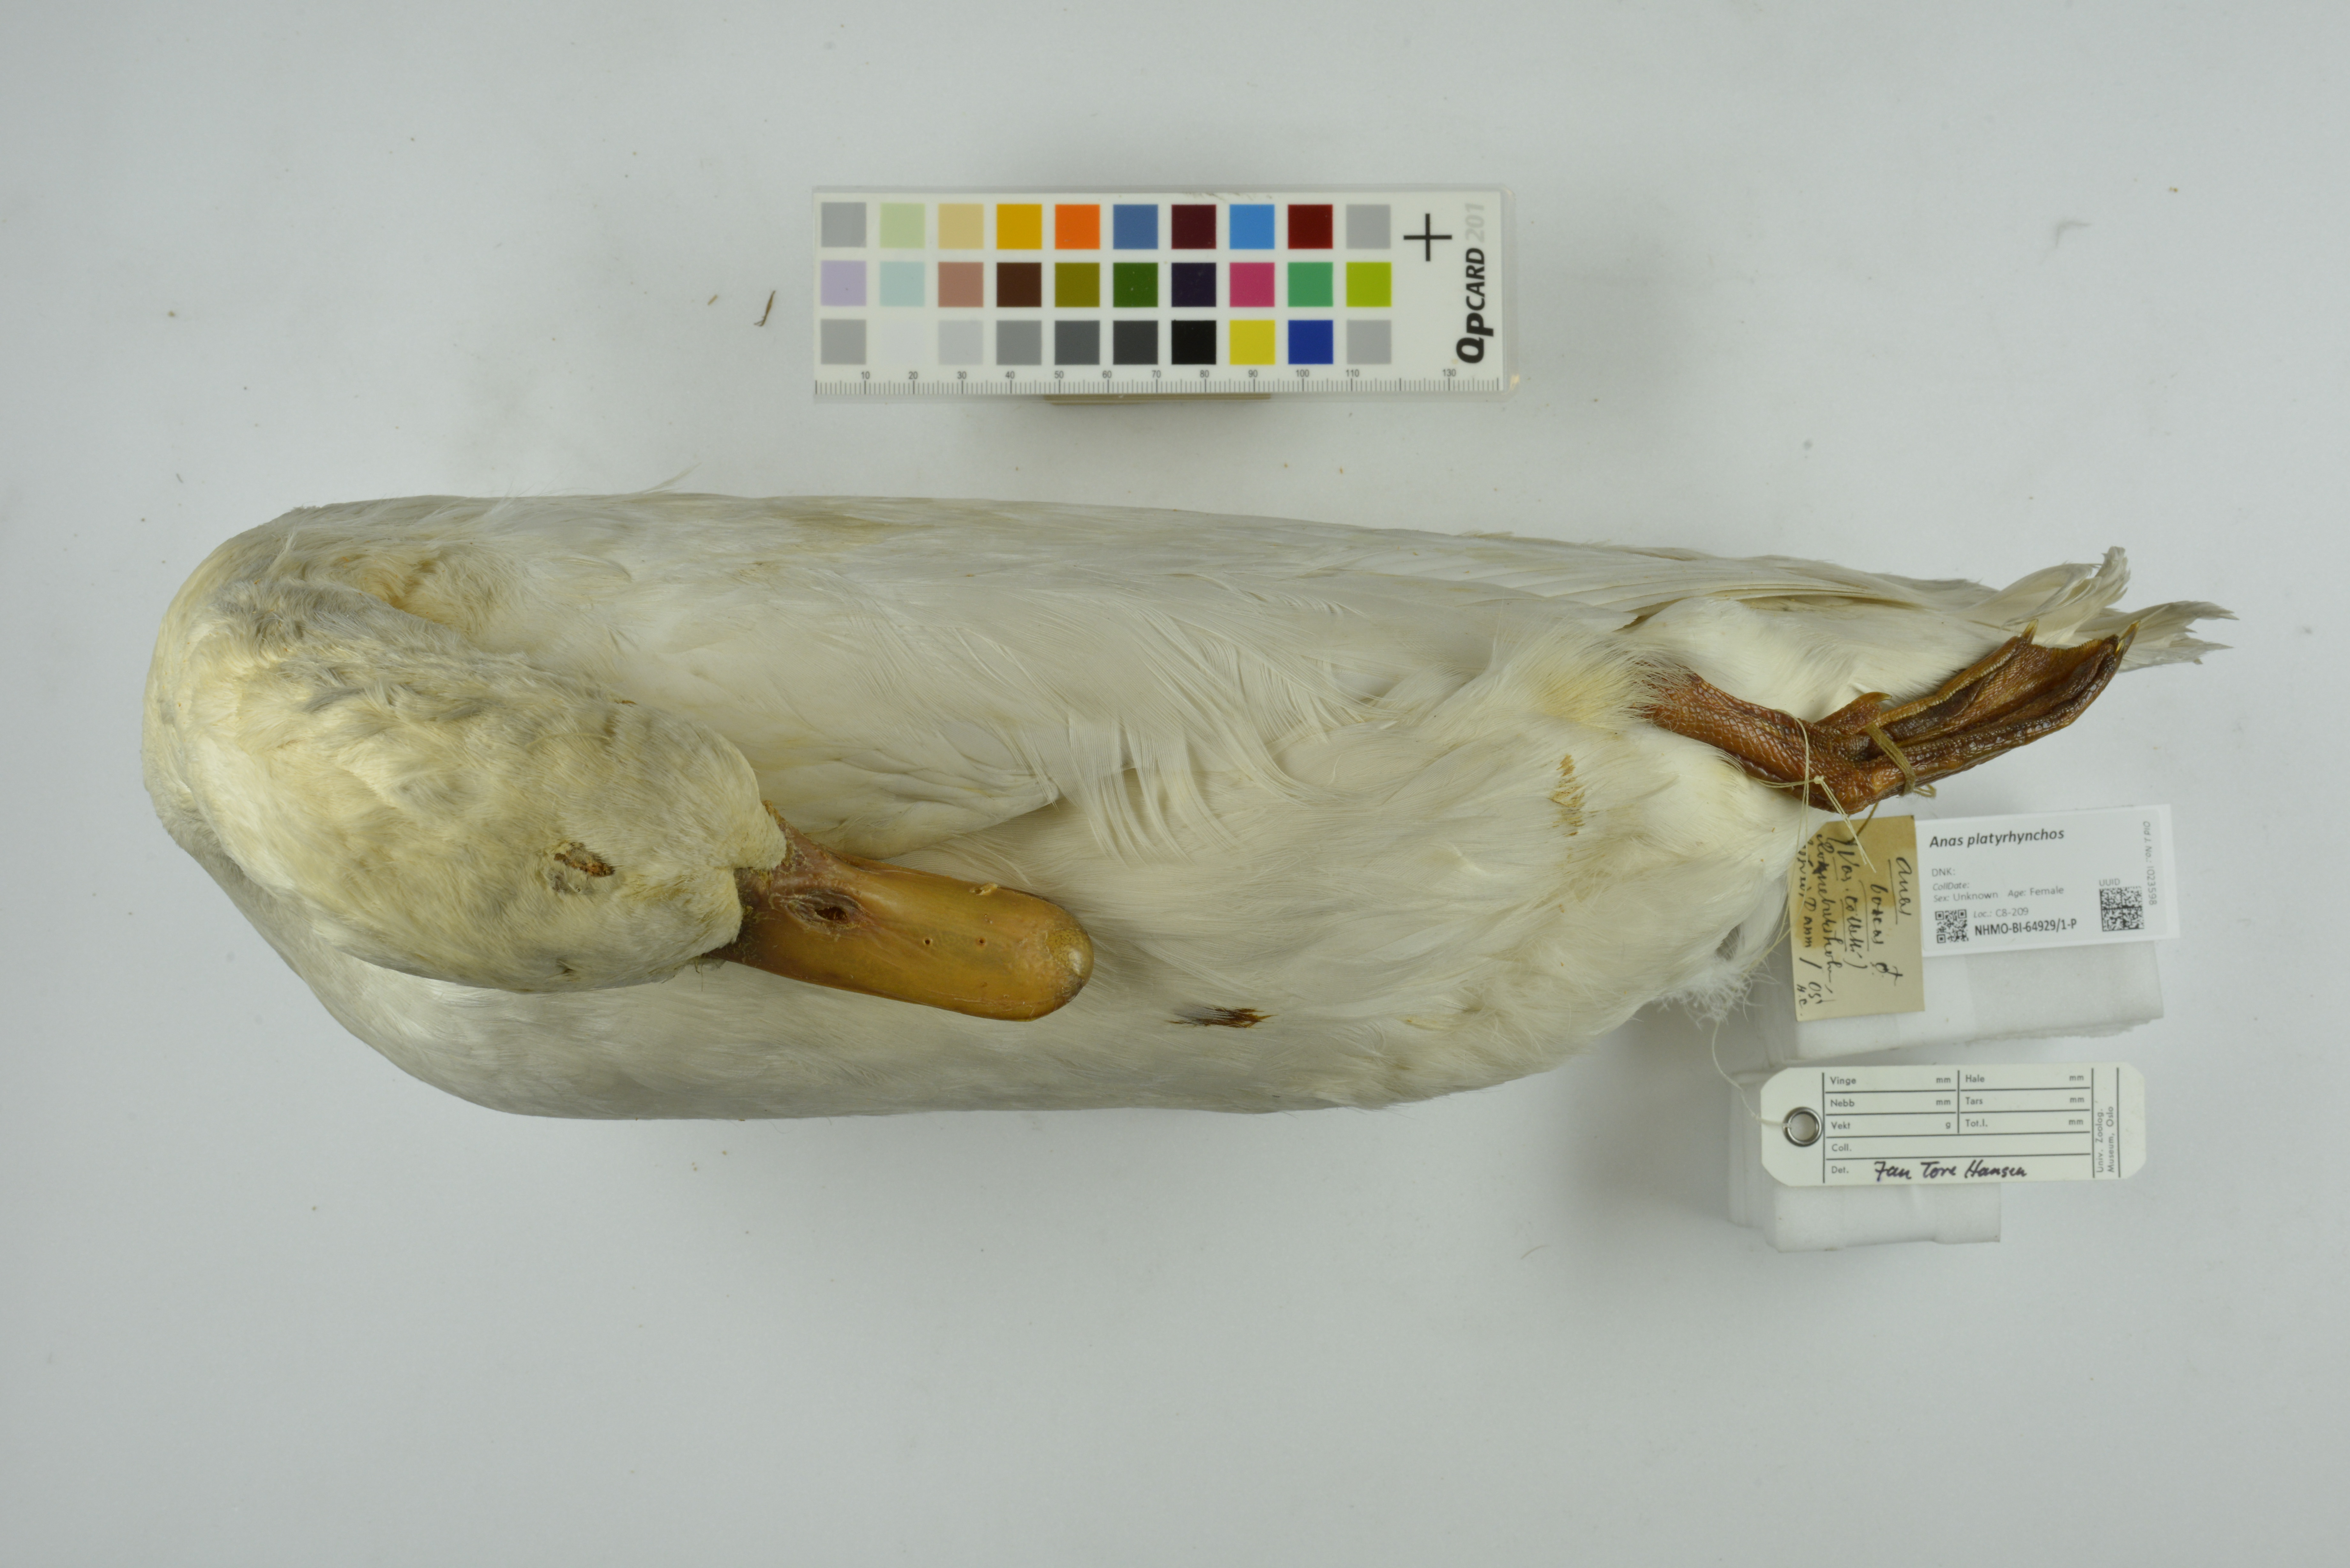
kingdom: Animalia
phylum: Chordata
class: Aves
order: Anseriformes
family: Anatidae
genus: Anas
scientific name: Anas platyrhynchos
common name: Mallard
